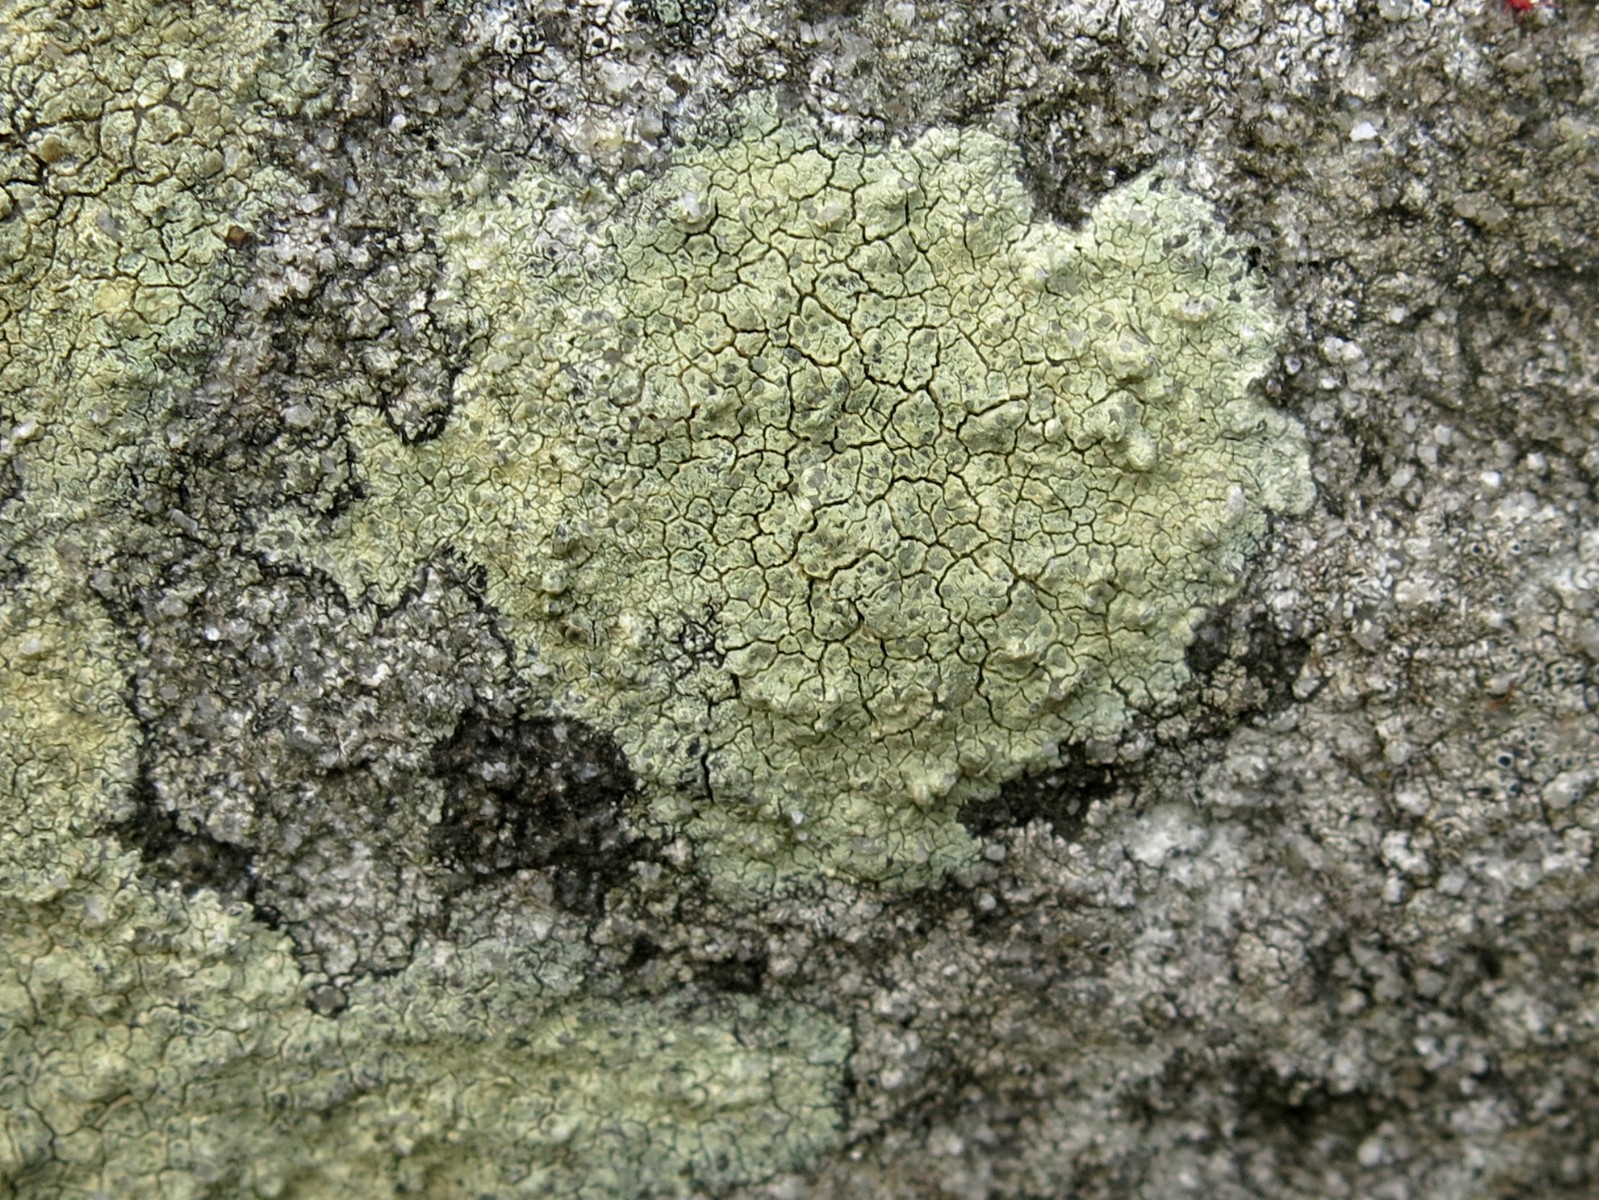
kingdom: Fungi
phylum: Ascomycota
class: Lecanoromycetes
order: Lecanorales
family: Lecanoraceae
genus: Glaucomaria
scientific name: Glaucomaria sulphurea
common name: svovlgul kantskivelav
